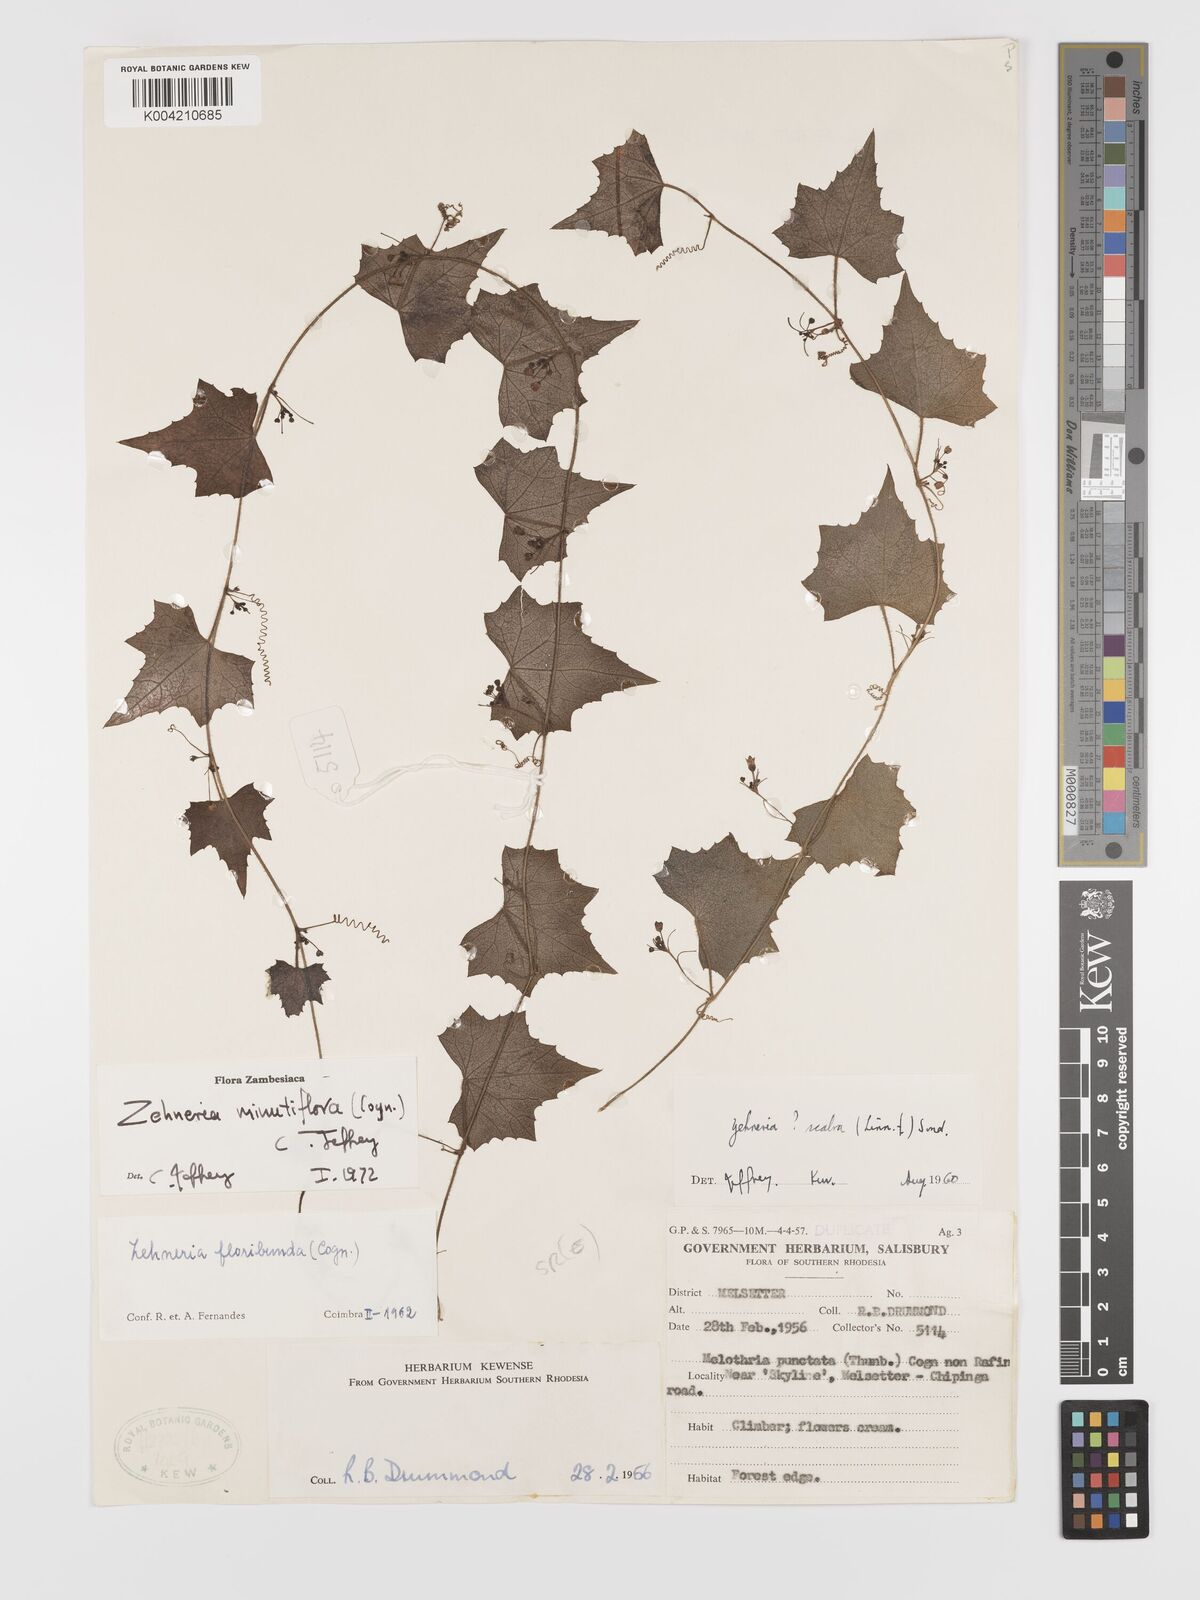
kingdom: Plantae
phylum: Tracheophyta
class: Magnoliopsida
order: Cucurbitales
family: Cucurbitaceae
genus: Zehneria
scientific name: Zehneria minutiflora
